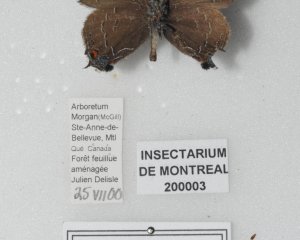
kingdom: Animalia
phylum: Arthropoda
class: Insecta
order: Lepidoptera
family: Lycaenidae
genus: Satyrium
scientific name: Satyrium calanus
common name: Banded Hairstreak
